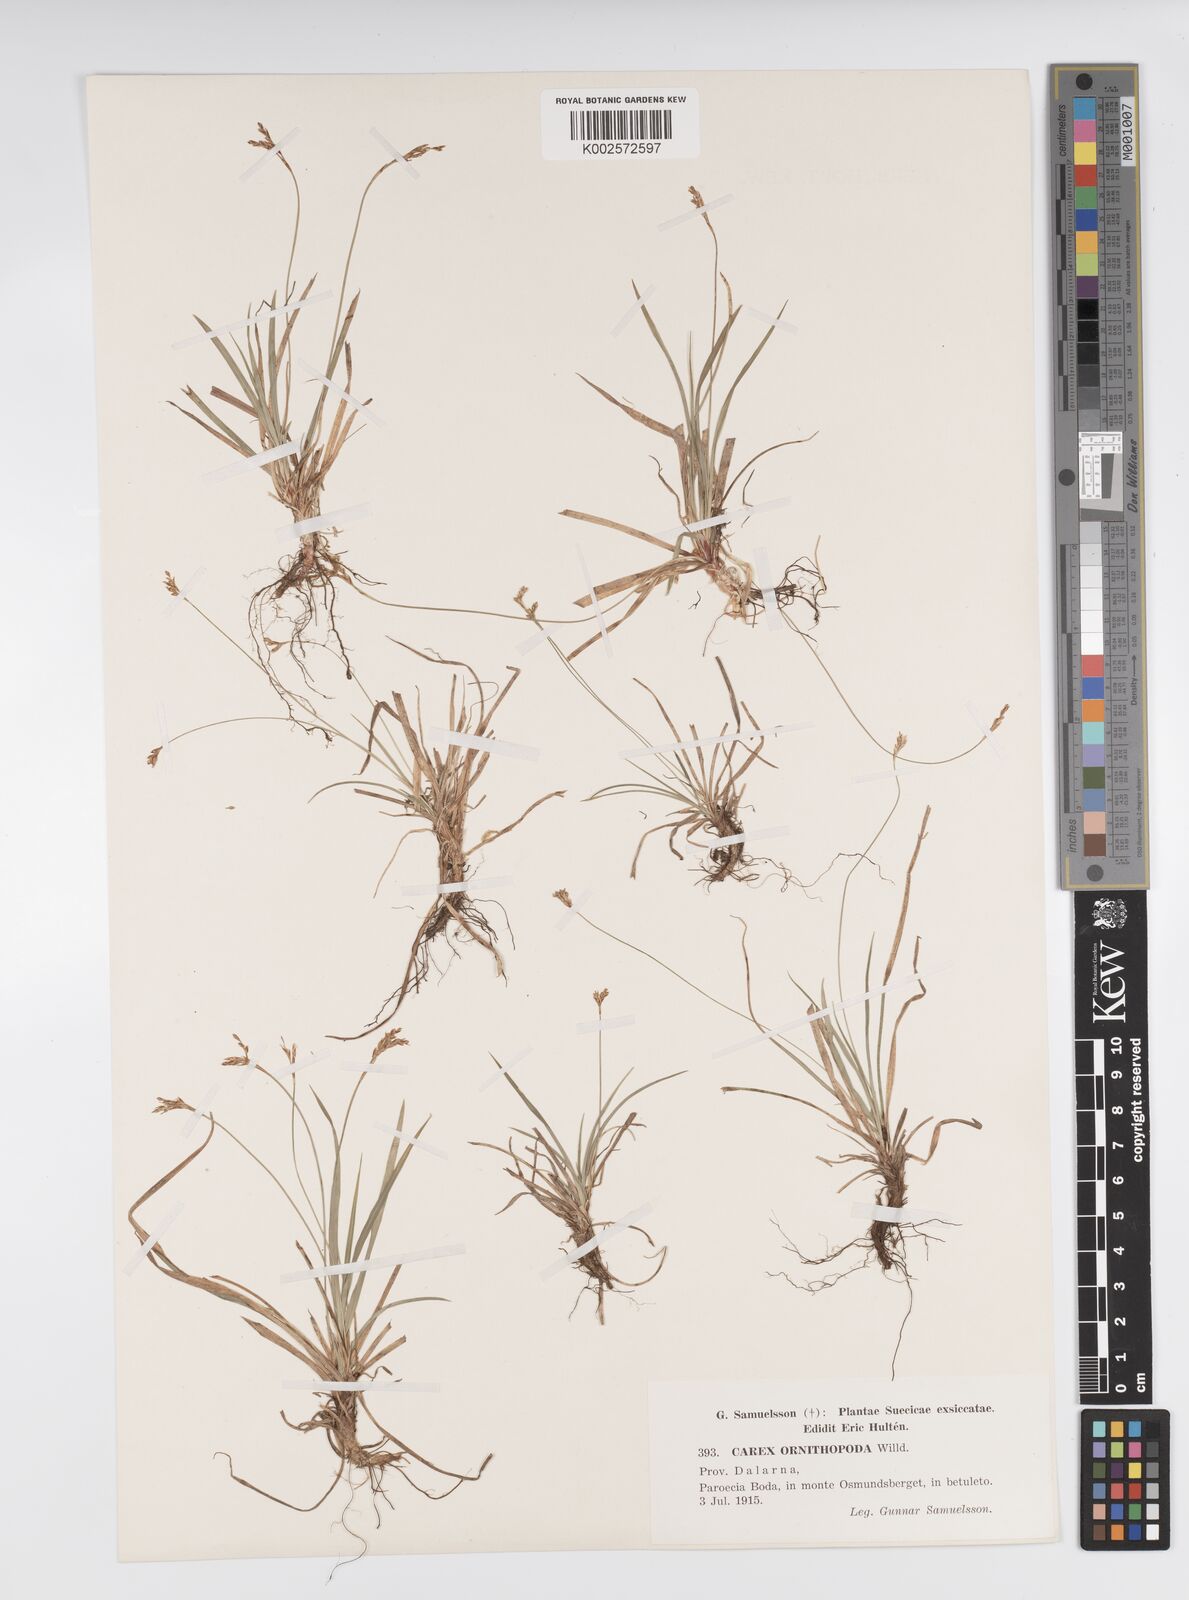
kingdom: Plantae
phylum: Tracheophyta
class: Liliopsida
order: Poales
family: Cyperaceae
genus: Carex
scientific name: Carex ornithopoda
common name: Bird's-foot sedge
